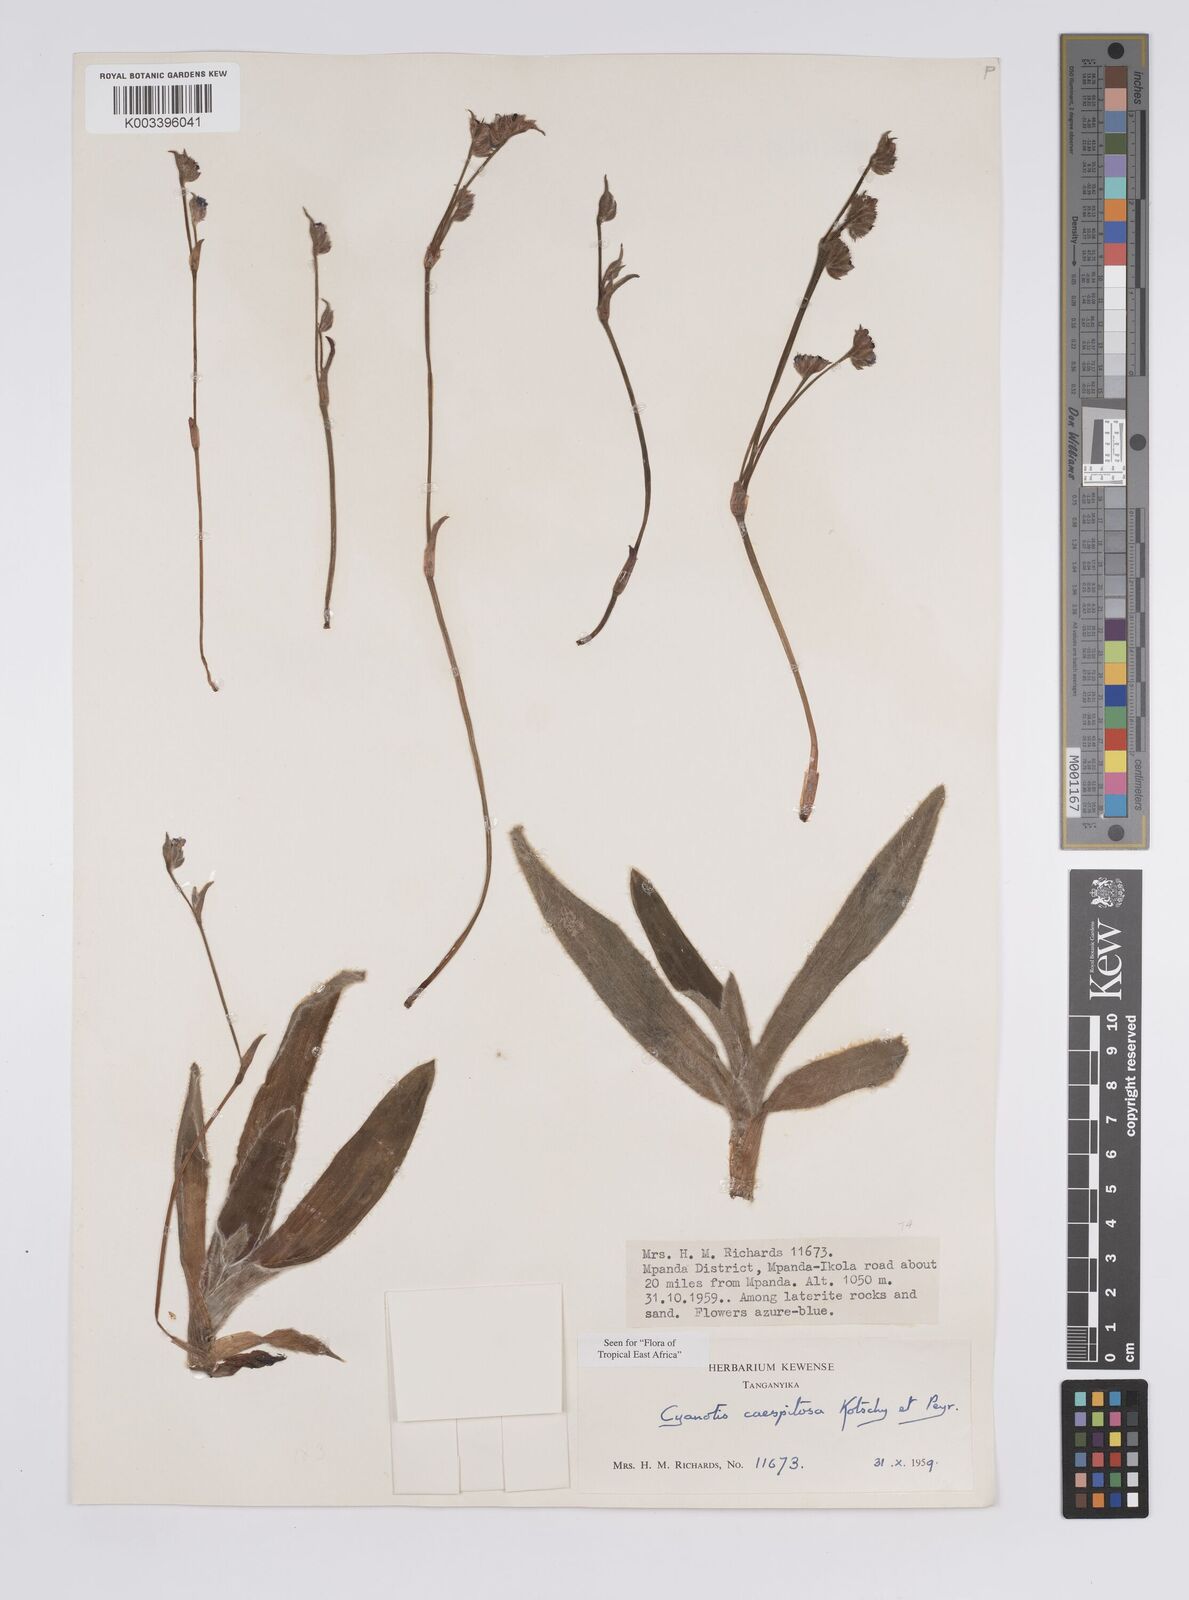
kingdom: Plantae
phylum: Tracheophyta
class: Liliopsida
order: Commelinales
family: Commelinaceae
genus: Cyanotis
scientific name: Cyanotis caespitosa
